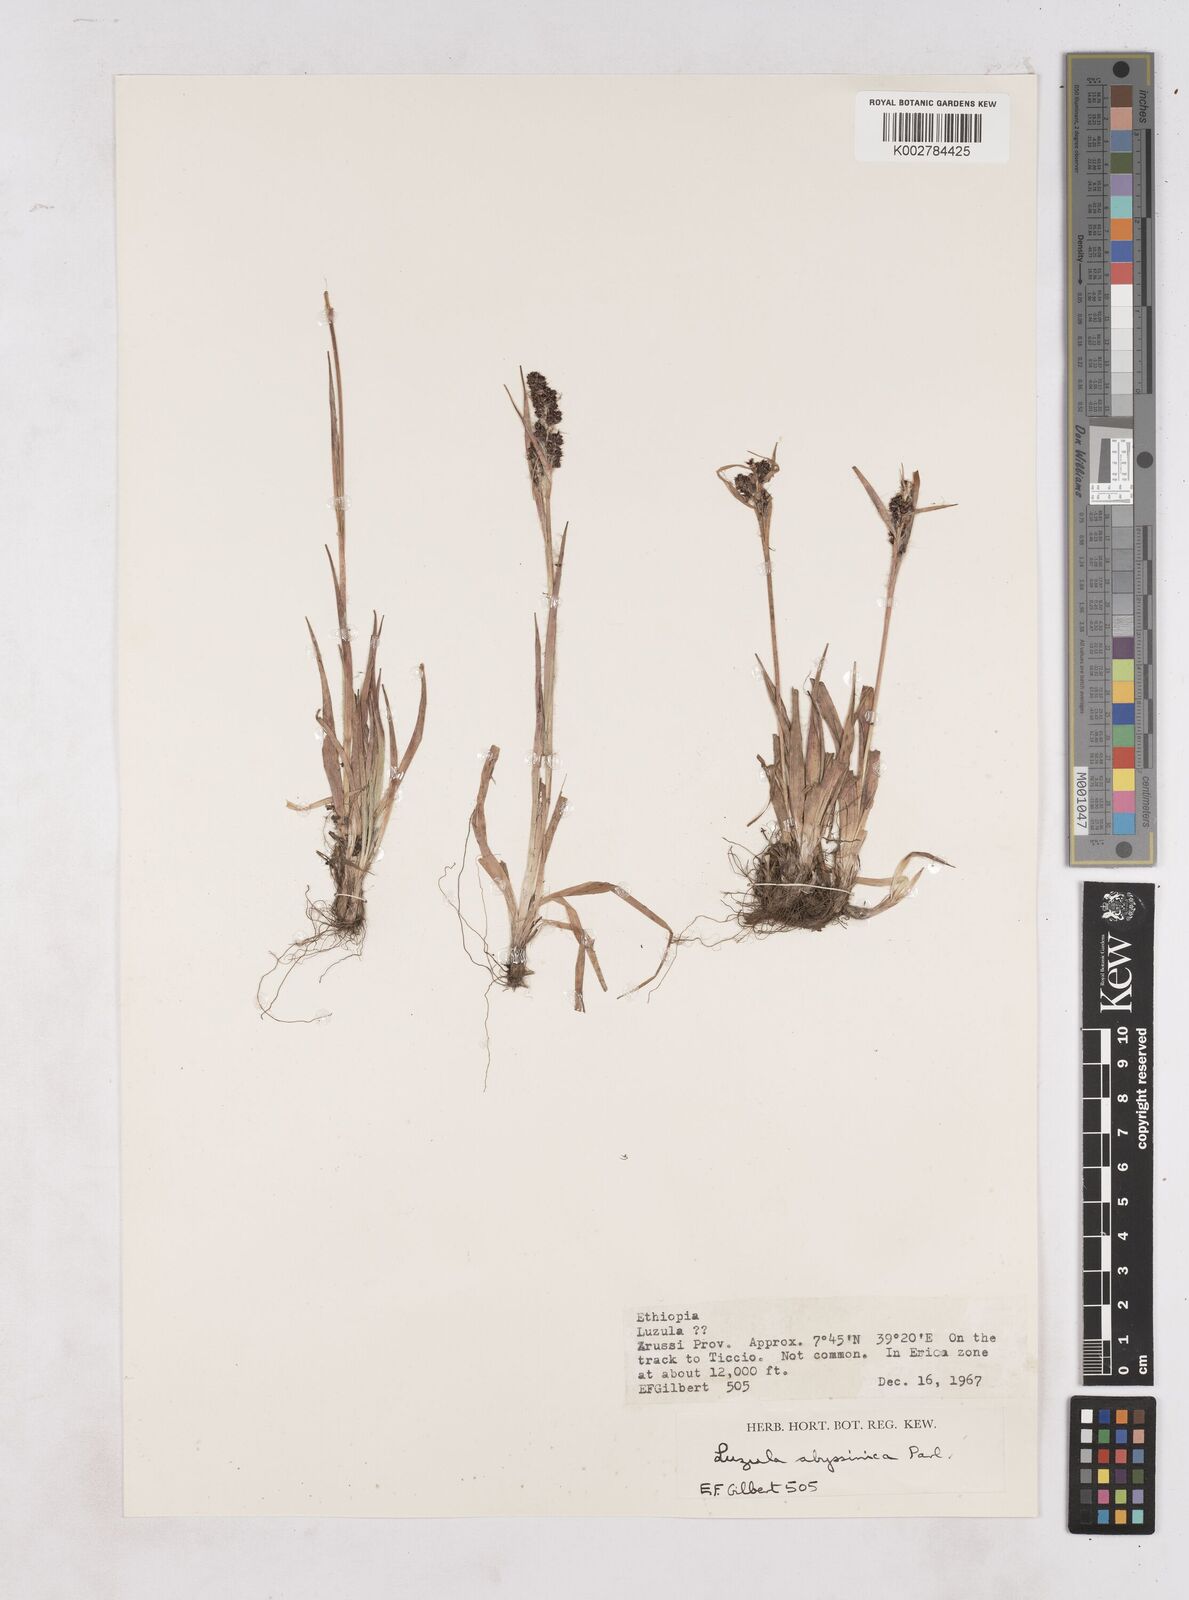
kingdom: Plantae
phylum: Tracheophyta
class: Liliopsida
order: Poales
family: Juncaceae
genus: Luzula
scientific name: Luzula abyssinica
